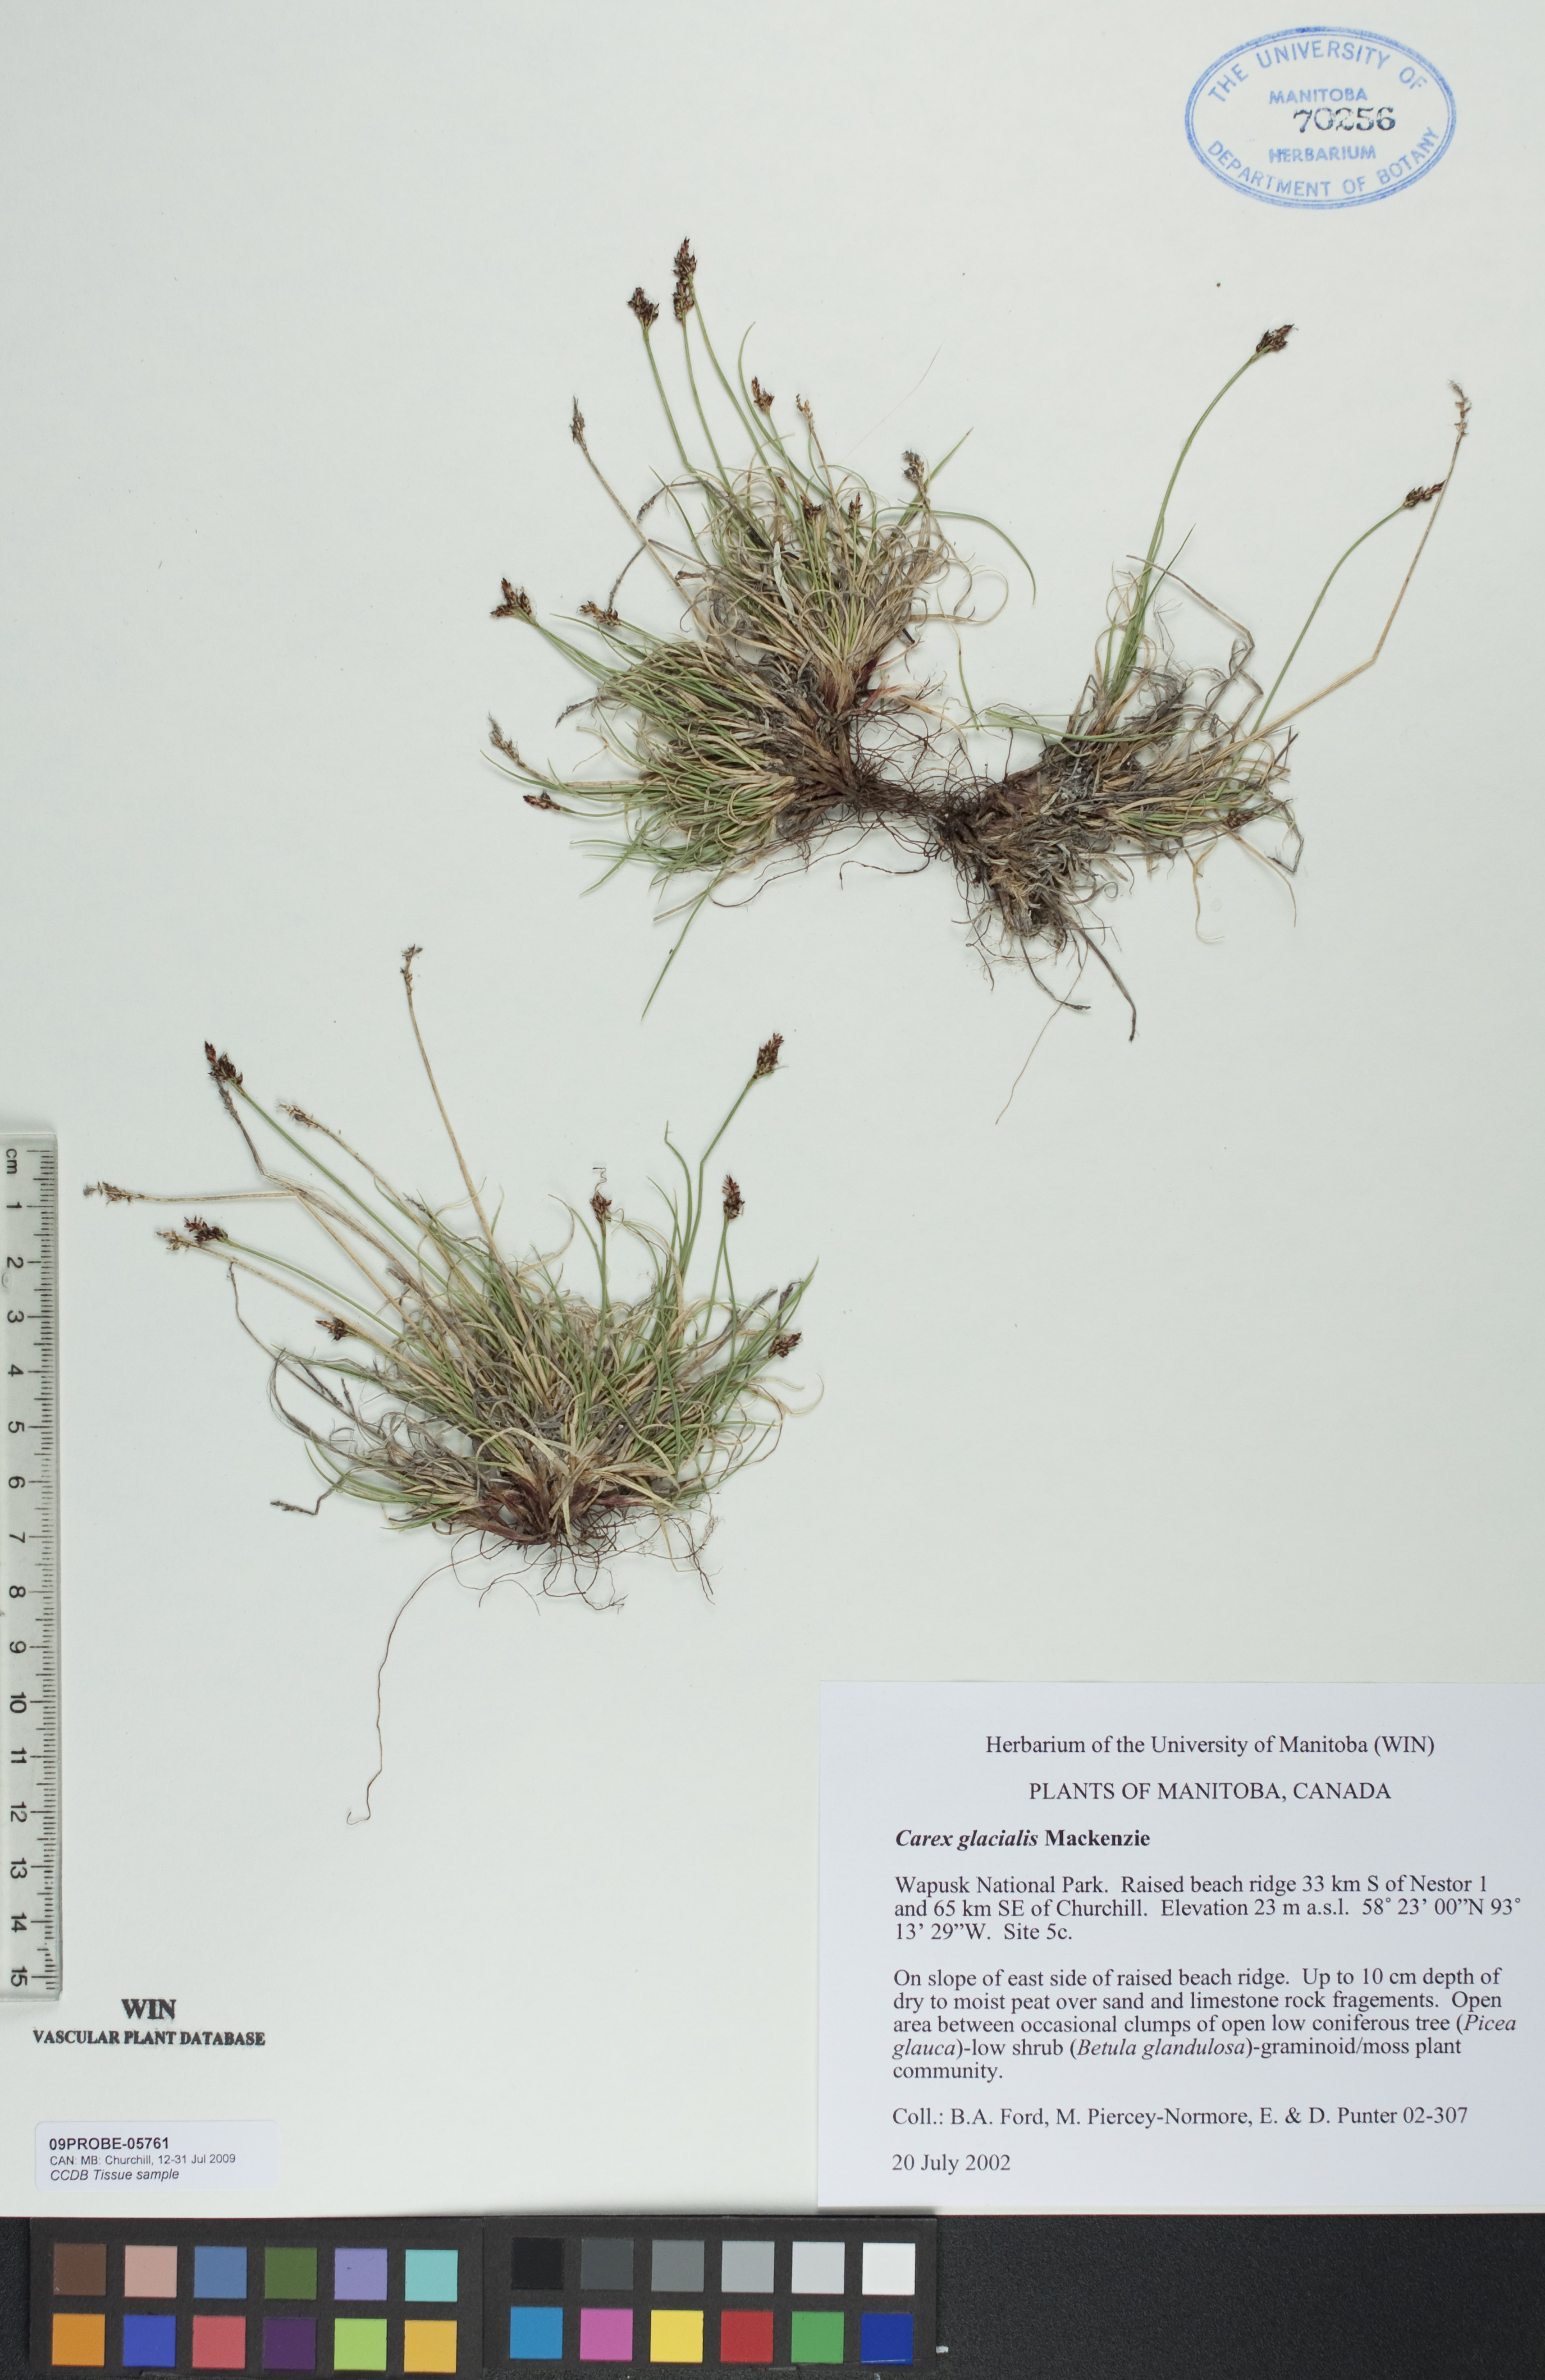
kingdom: Plantae
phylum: Tracheophyta
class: Liliopsida
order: Poales
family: Cyperaceae
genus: Carex
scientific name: Carex glacialis
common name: Newfoundland sedge
